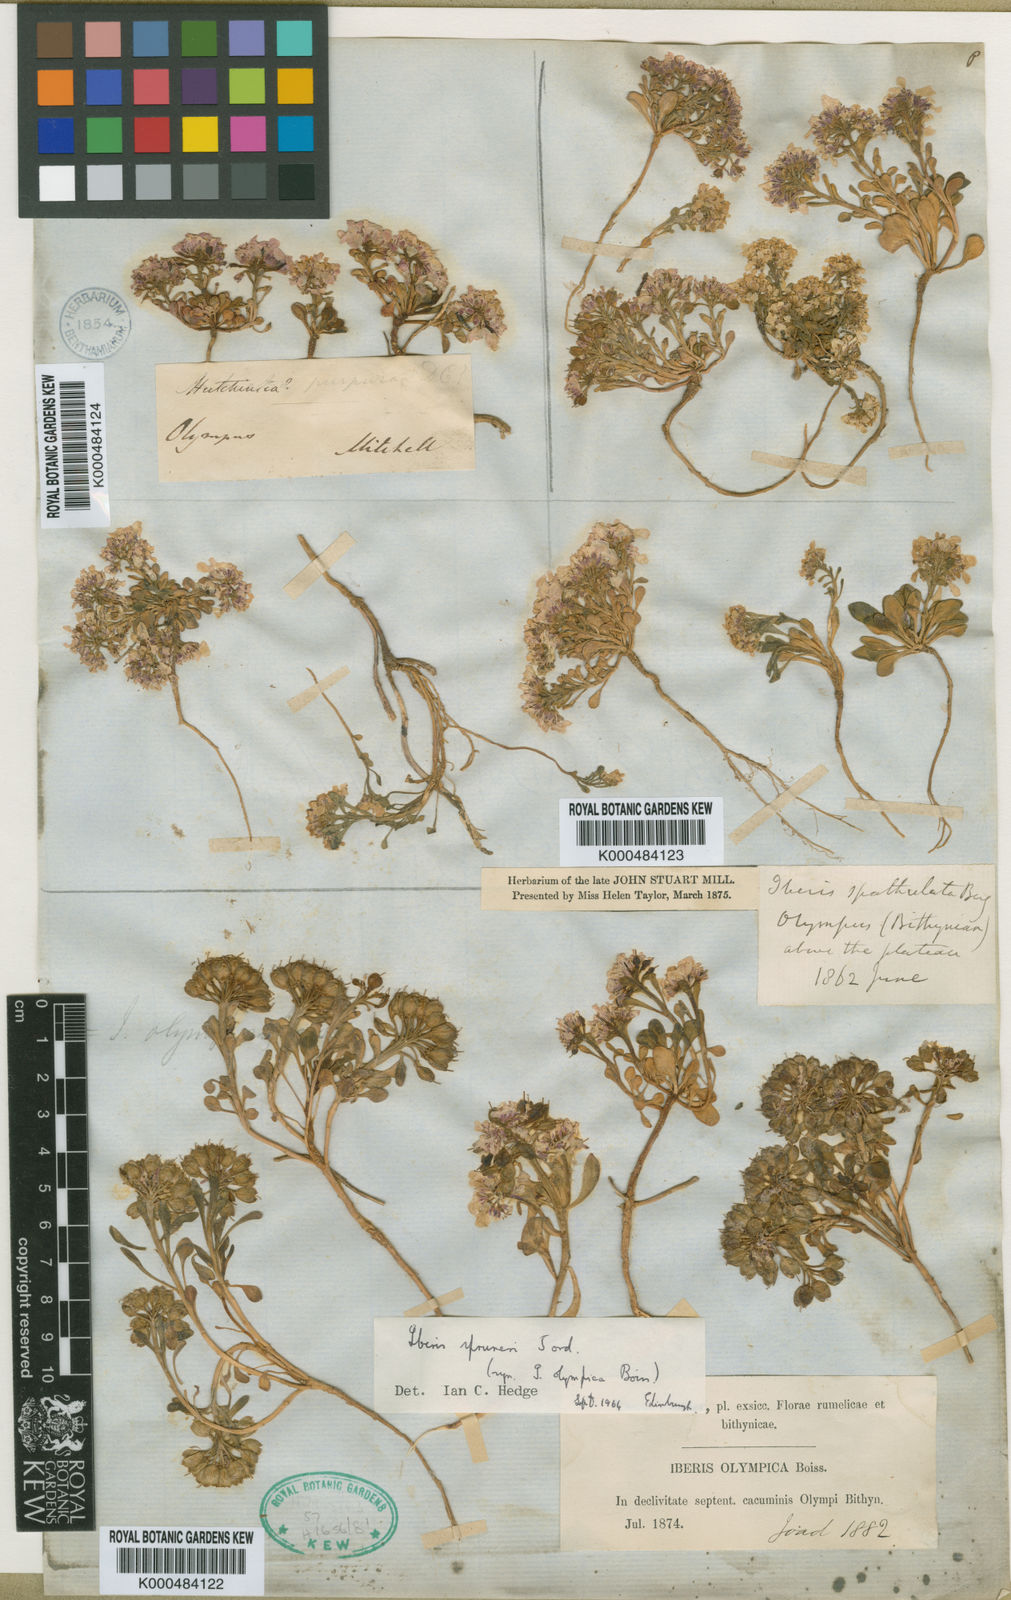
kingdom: Plantae
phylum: Tracheophyta
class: Magnoliopsida
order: Brassicales
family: Brassicaceae
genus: Iberis
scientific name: Iberis carnosa
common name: Pruit's candytuft
